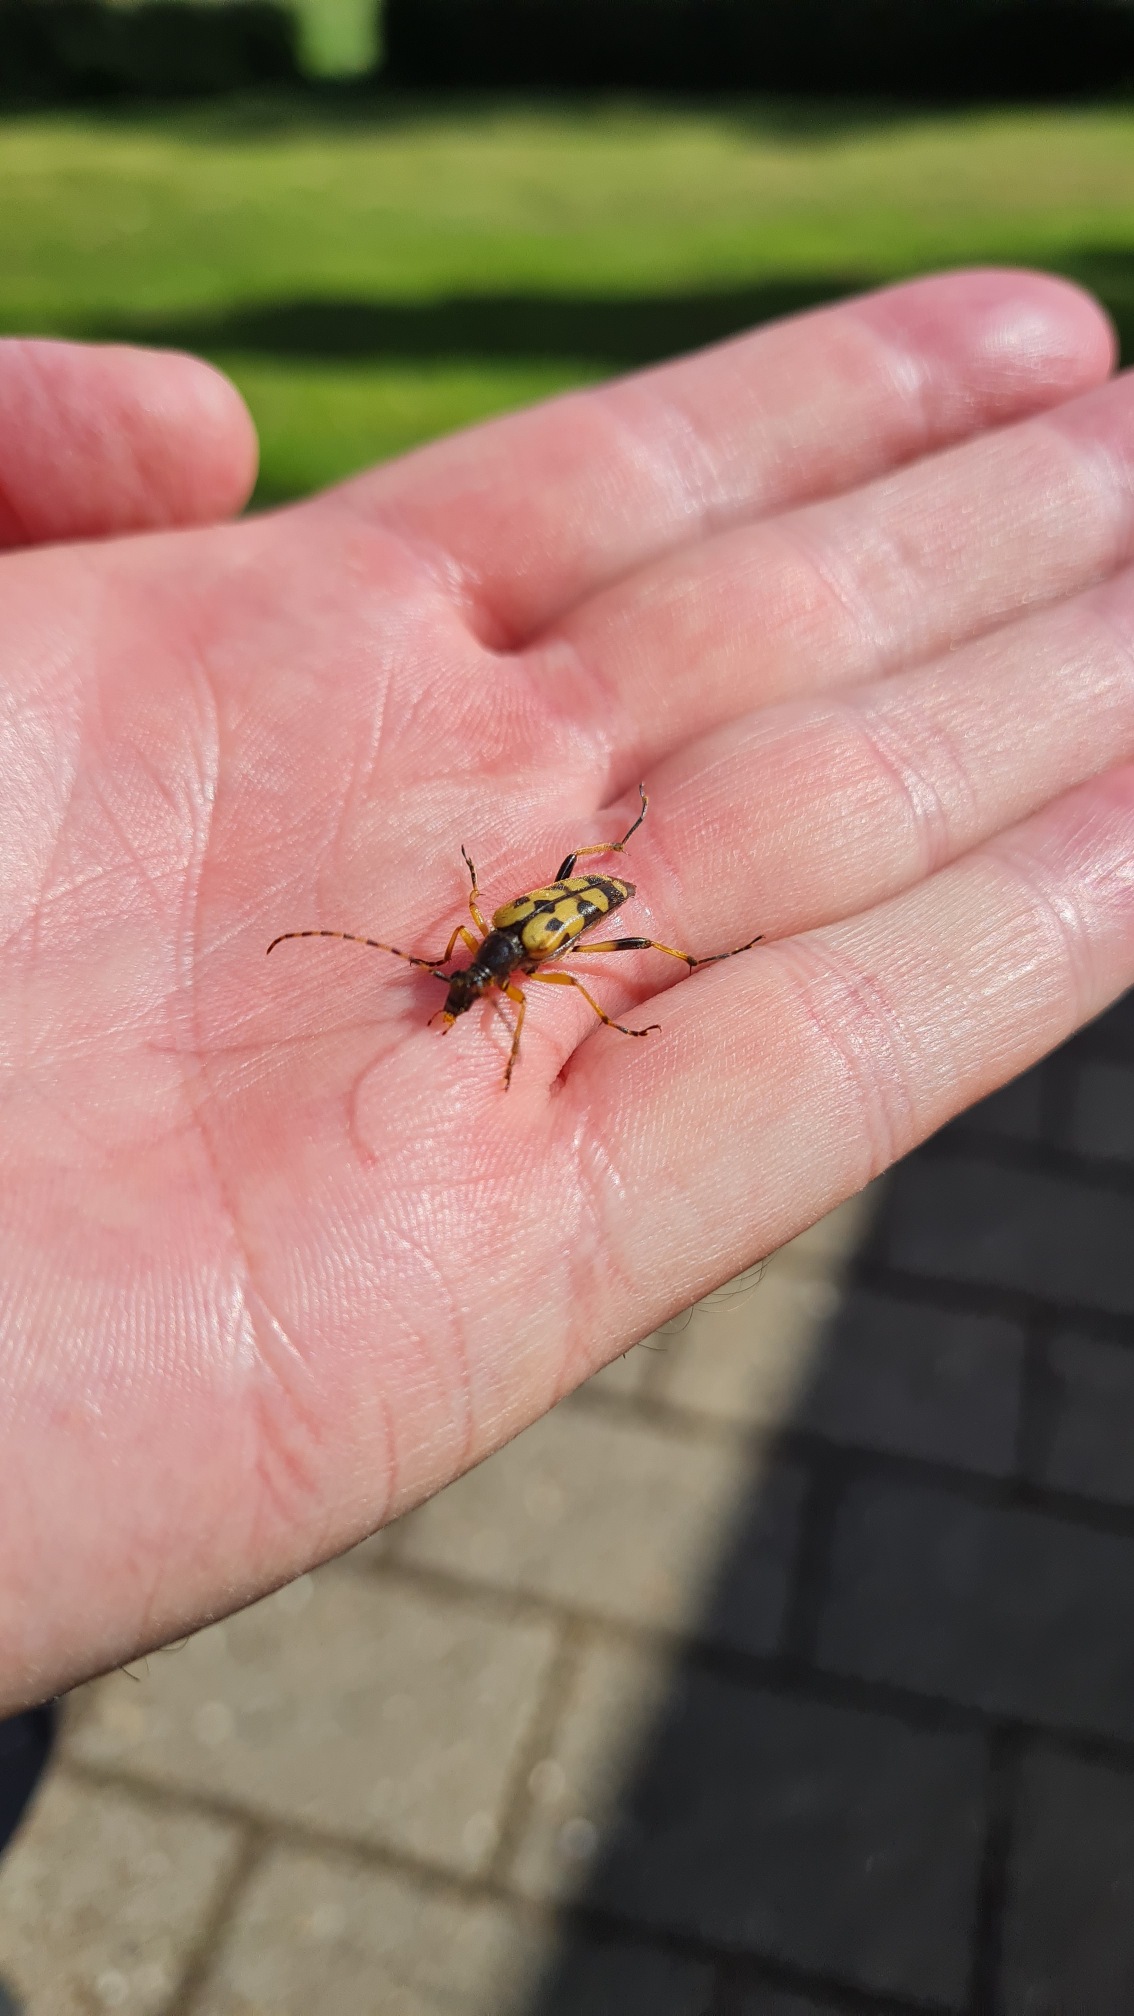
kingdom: Animalia
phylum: Arthropoda
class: Insecta
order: Coleoptera
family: Cerambycidae
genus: Rutpela
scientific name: Rutpela maculata
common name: Sydlig blomsterbuk
